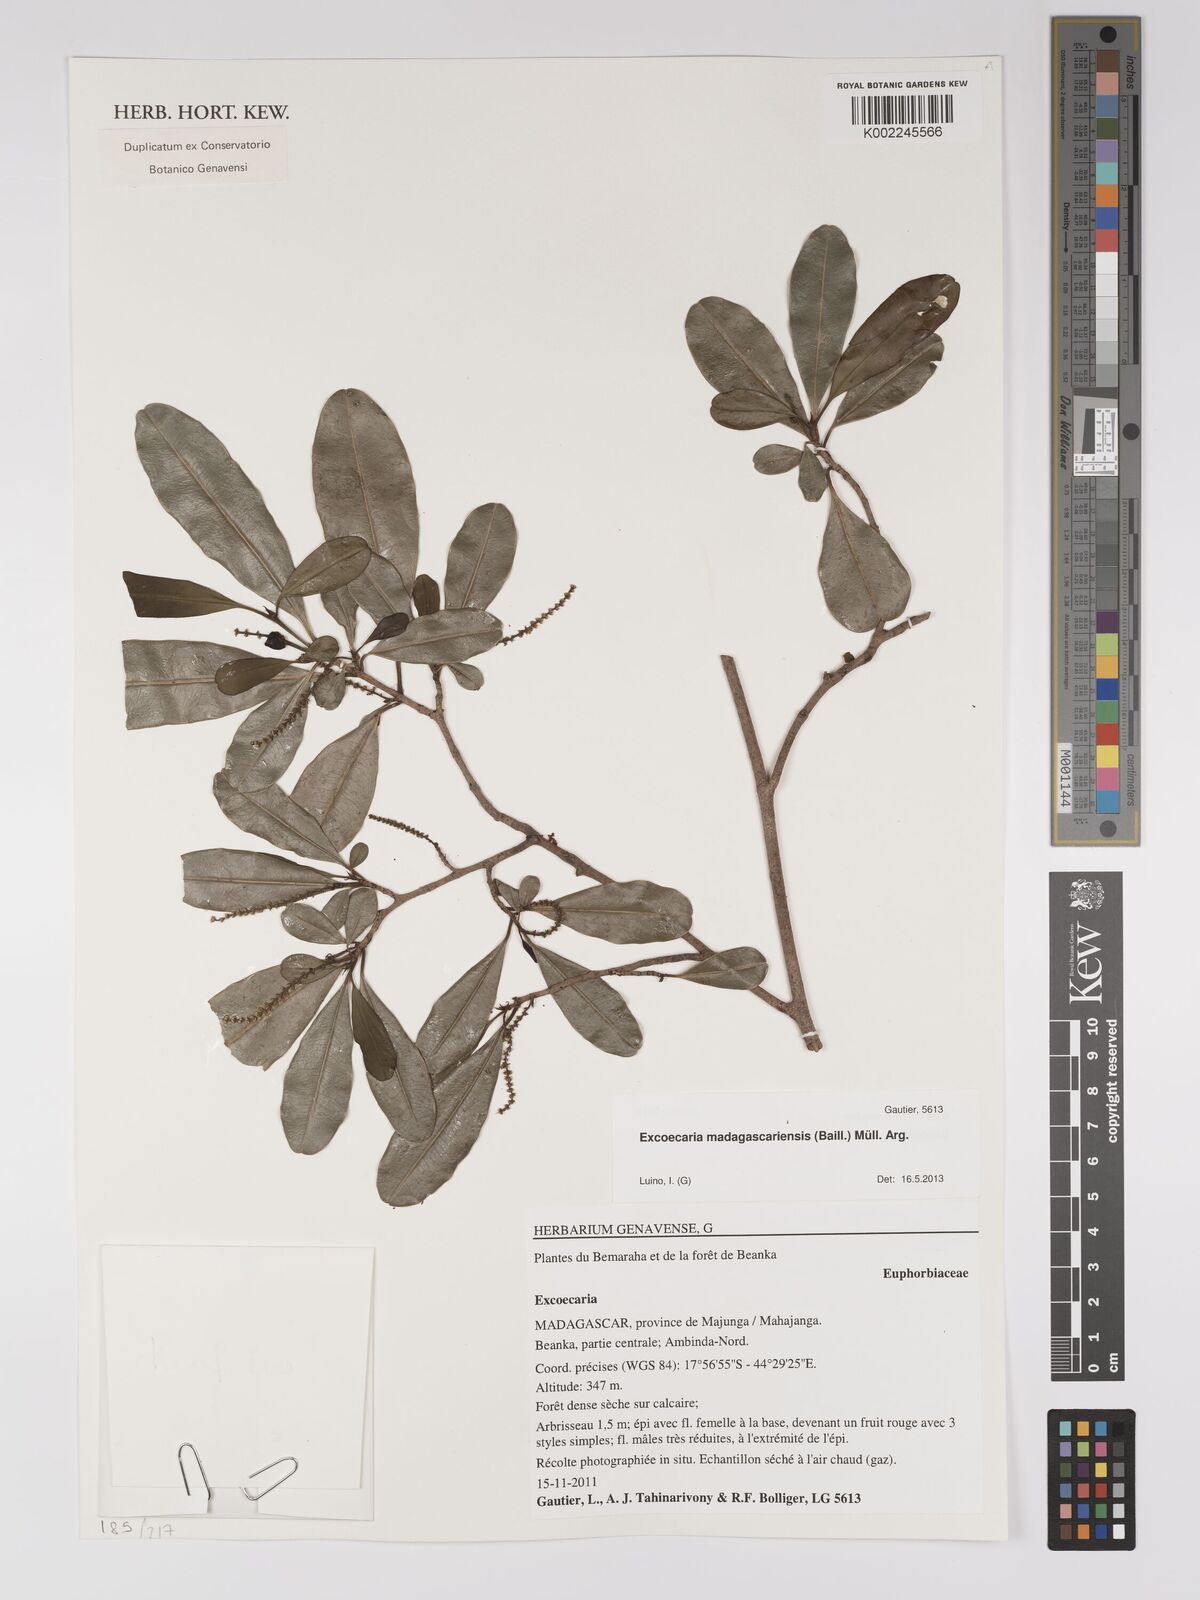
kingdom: Plantae
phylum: Tracheophyta
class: Magnoliopsida
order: Malpighiales
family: Euphorbiaceae
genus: Excoecaria
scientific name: Excoecaria madagascariensis
